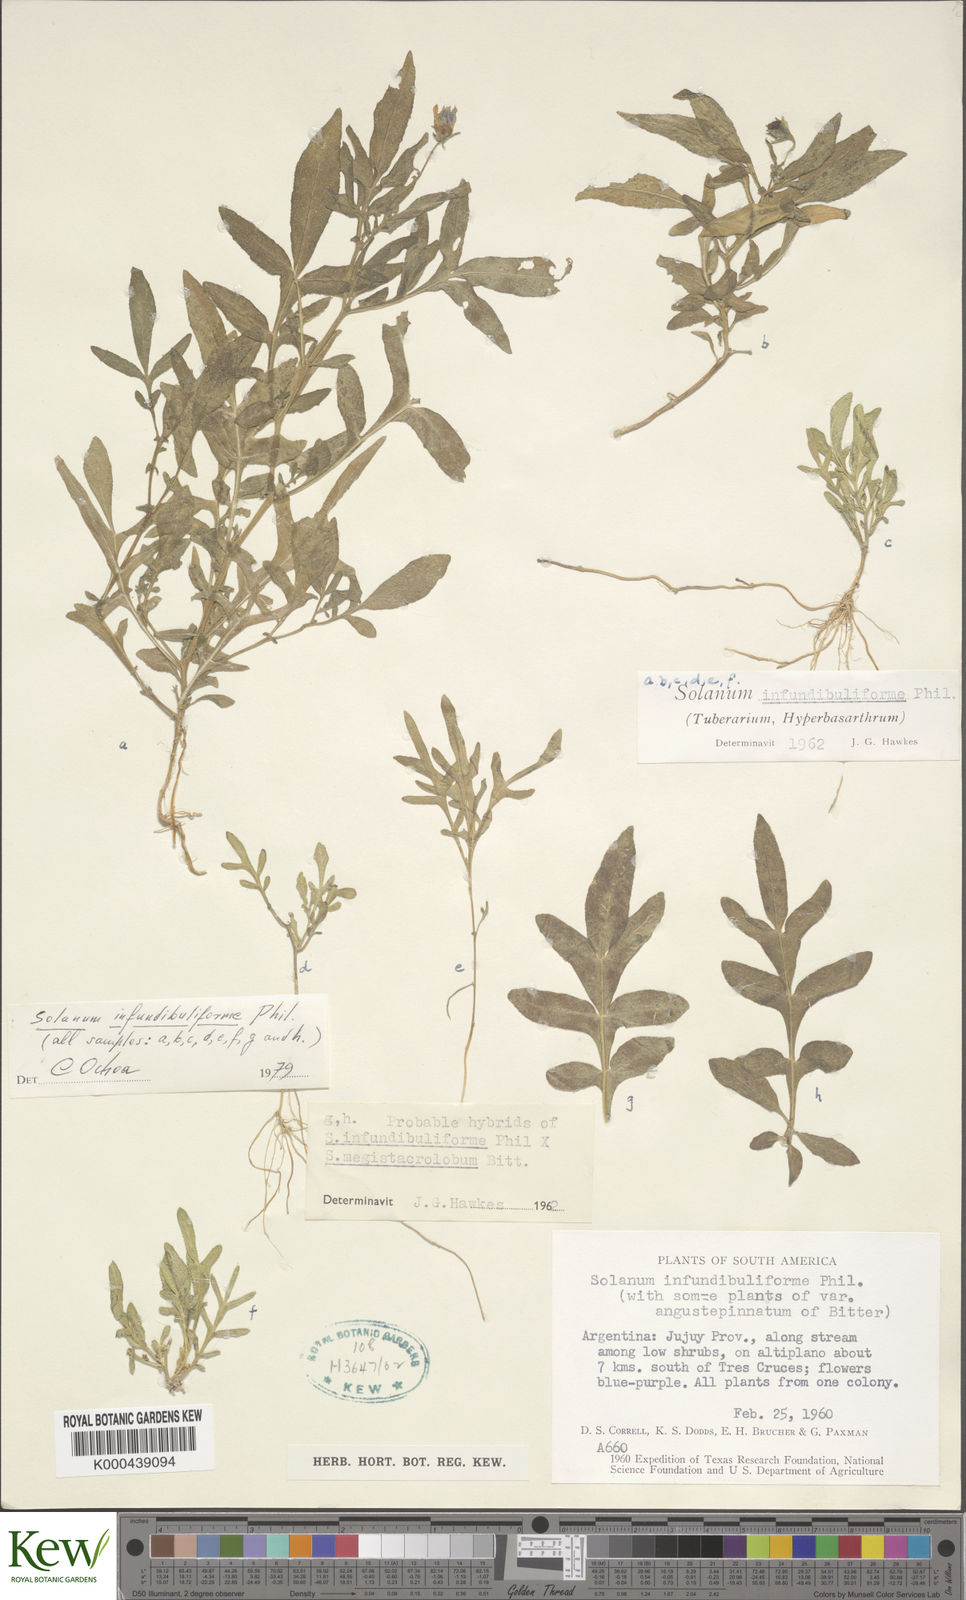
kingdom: Plantae
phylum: Tracheophyta
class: Magnoliopsida
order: Solanales
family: Solanaceae
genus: Solanum
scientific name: Solanum infundibuliforme
